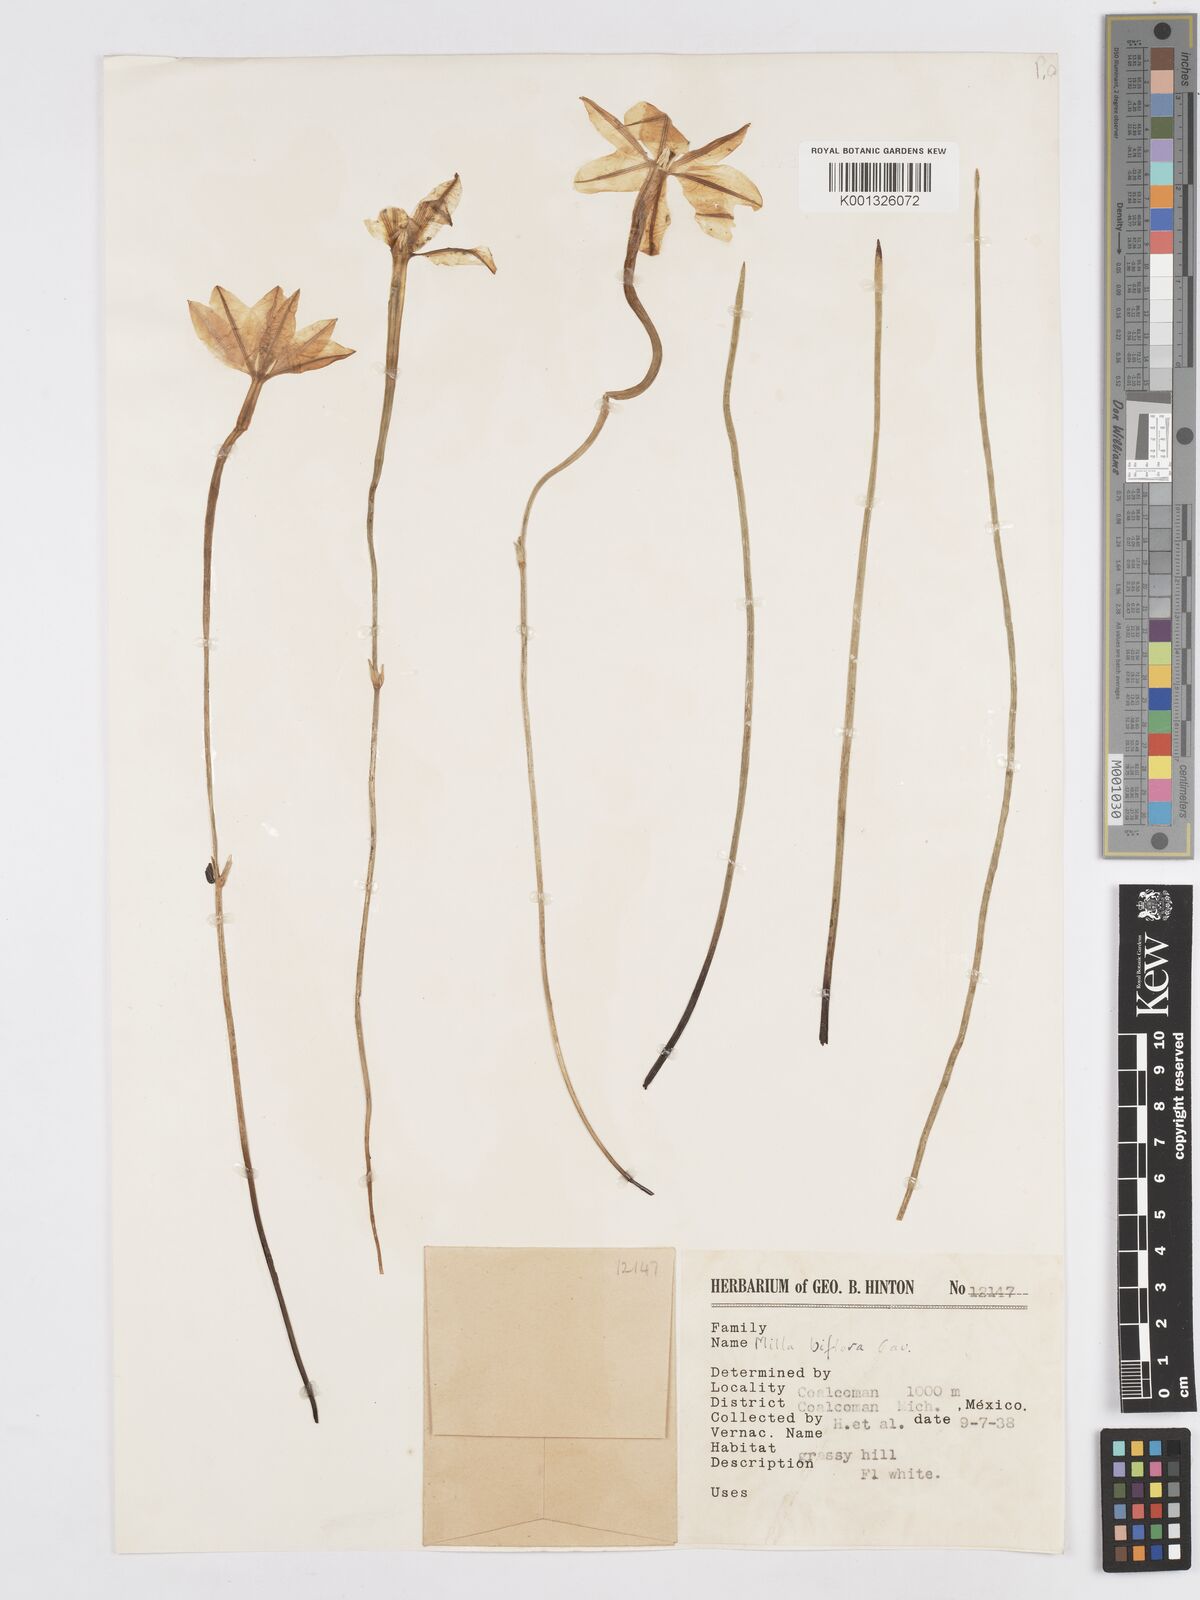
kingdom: Plantae
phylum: Tracheophyta
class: Liliopsida
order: Asparagales
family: Asparagaceae
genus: Milla
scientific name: Milla biflora
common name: Mexican-star
